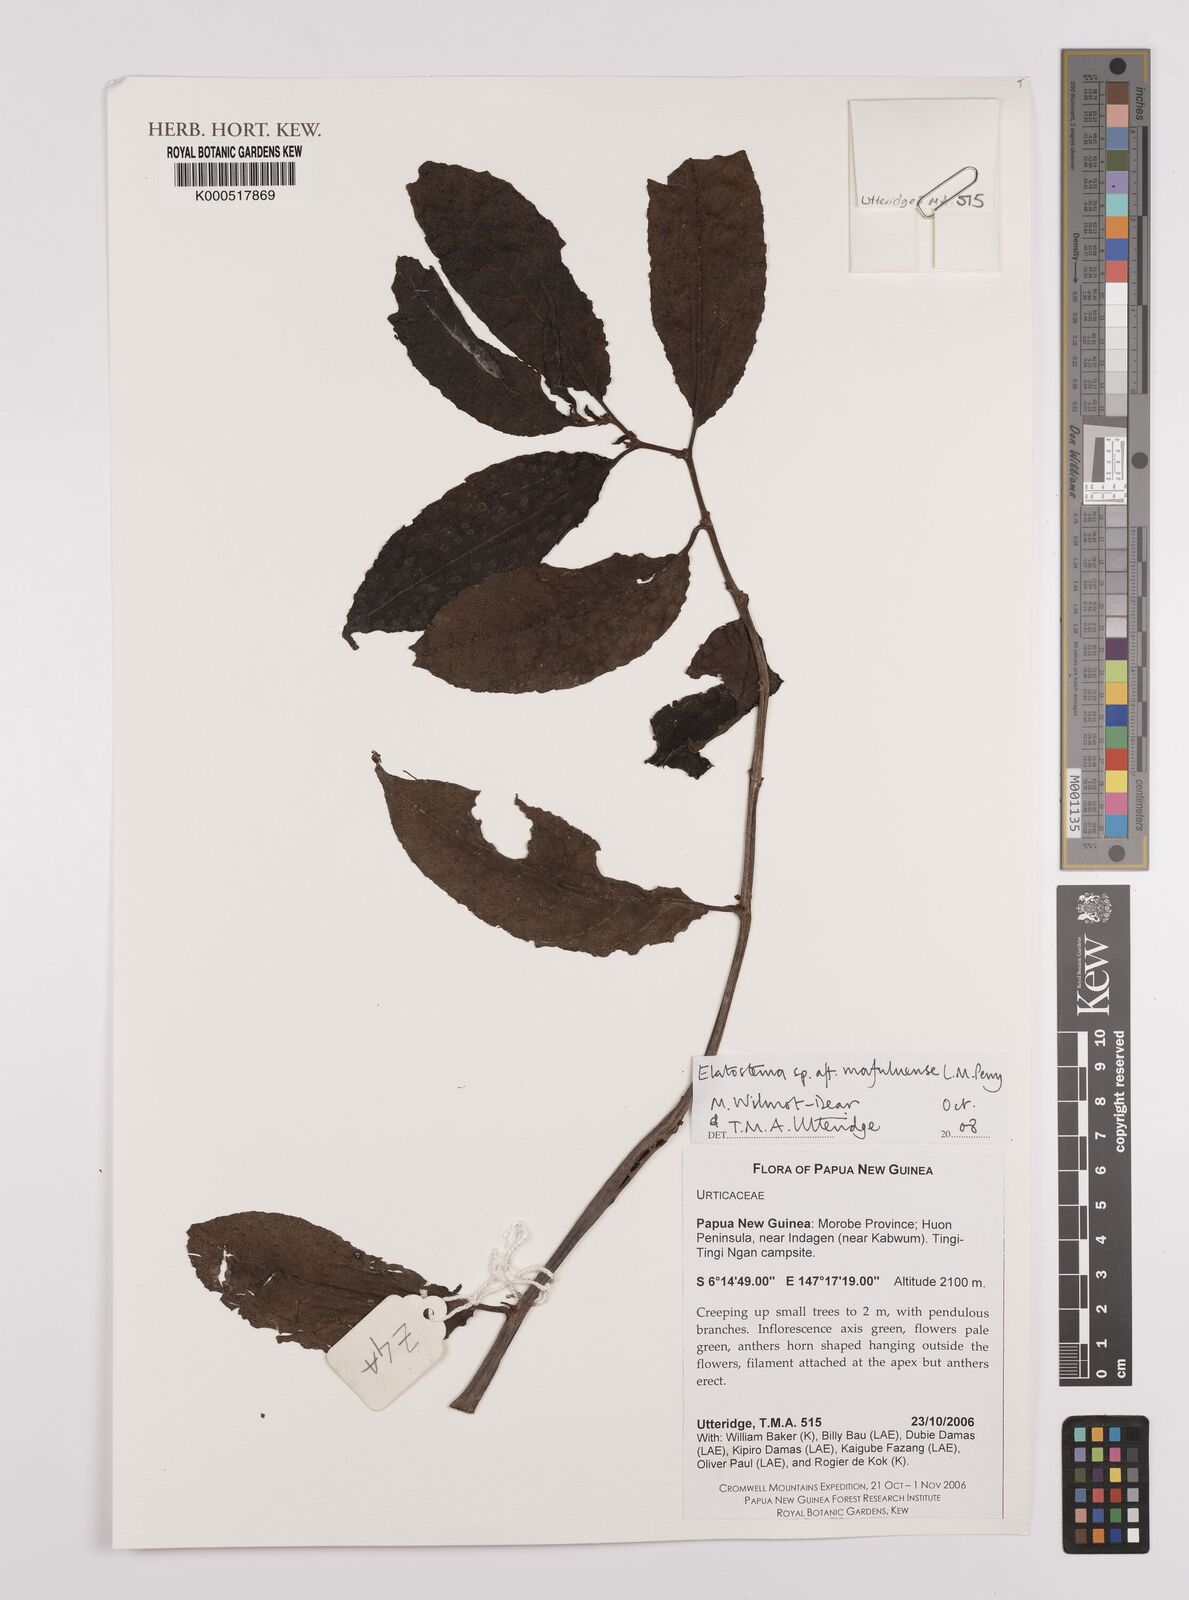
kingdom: Plantae
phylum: Tracheophyta
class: Magnoliopsida
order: Rosales
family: Urticaceae
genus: Elatostema
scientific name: Elatostema
